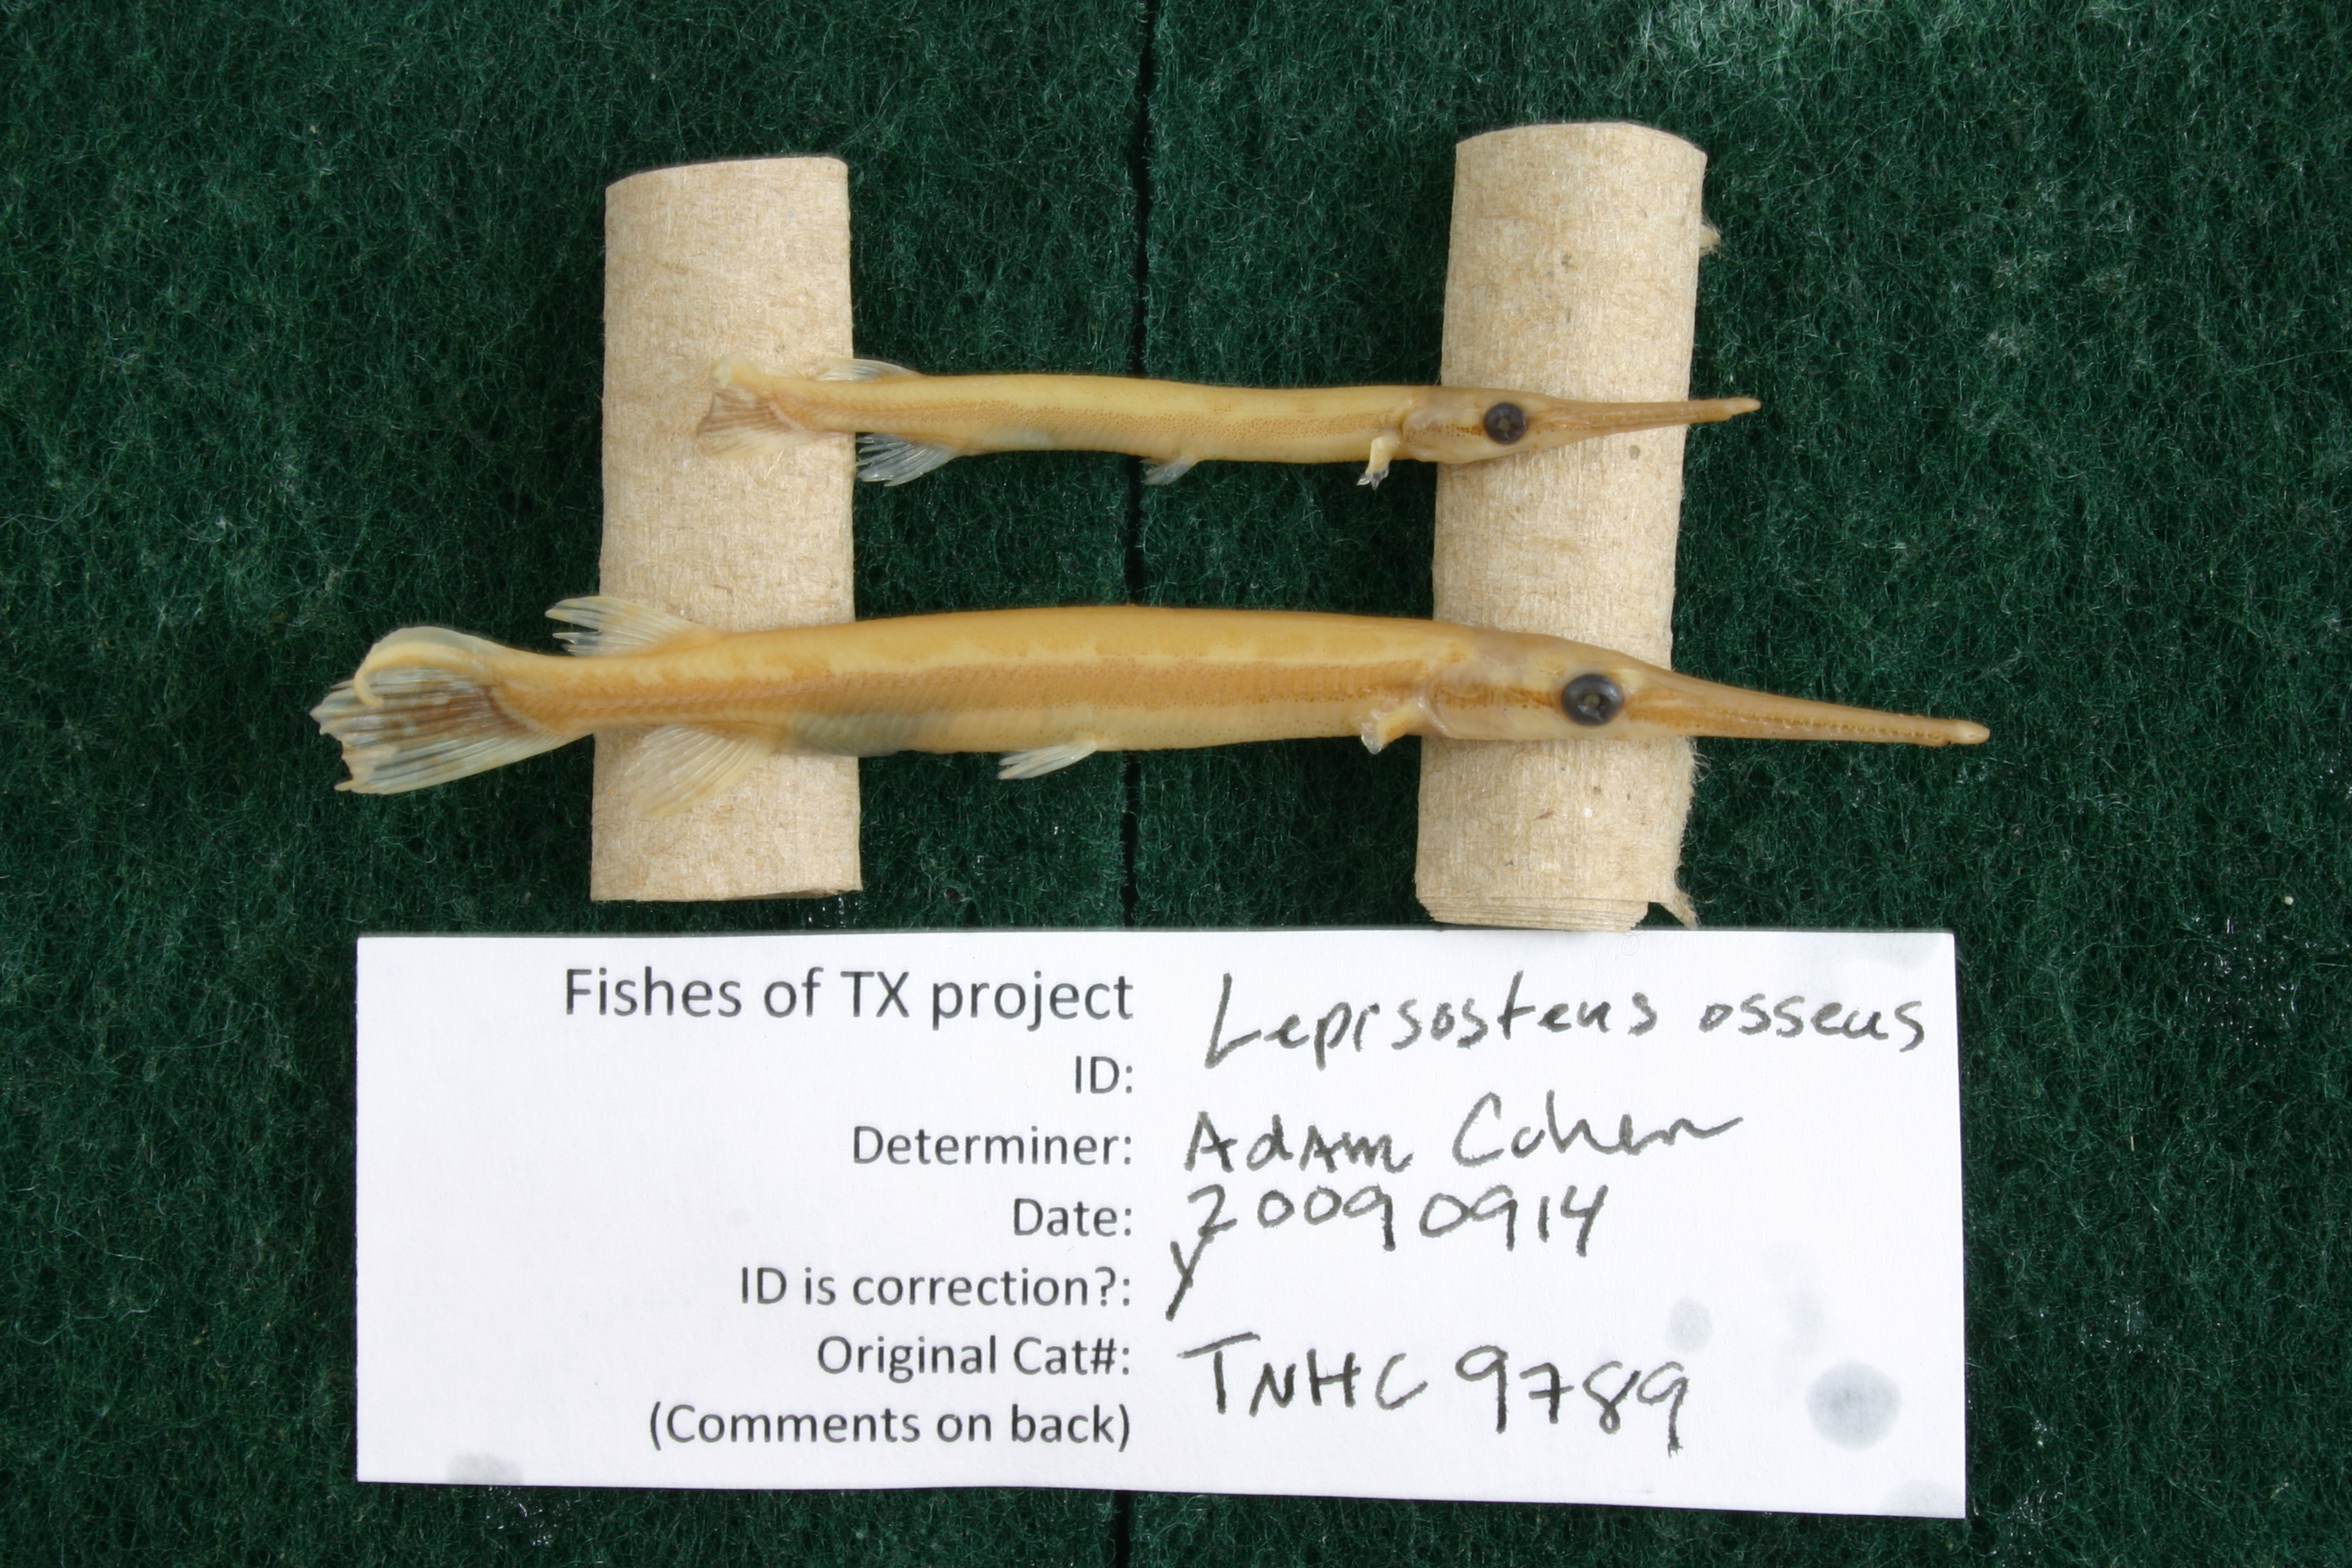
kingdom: Animalia
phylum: Chordata
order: Lepisosteiformes
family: Lepisosteidae
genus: Lepisosteus
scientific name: Lepisosteus osseus
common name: Longnose gar
